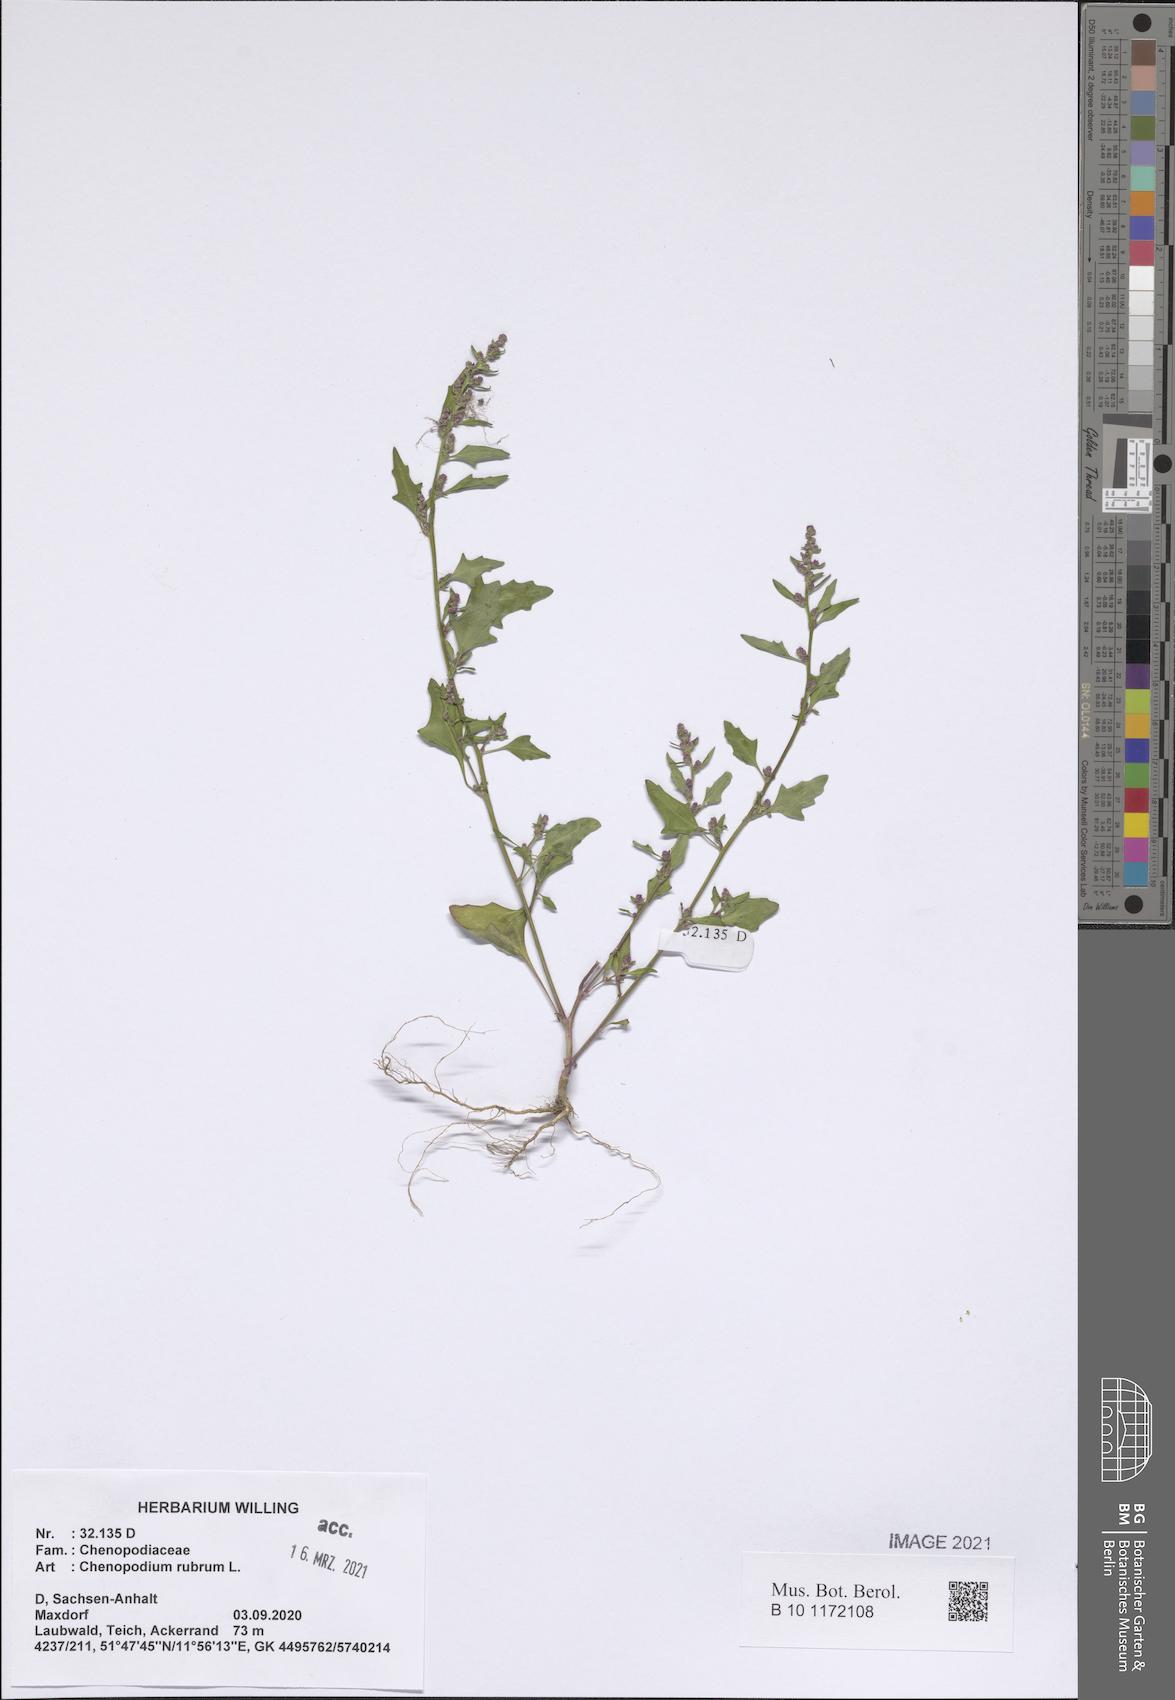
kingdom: Plantae
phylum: Tracheophyta
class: Magnoliopsida
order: Caryophyllales
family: Amaranthaceae
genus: Oxybasis
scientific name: Oxybasis rubra
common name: Red goosefoot
